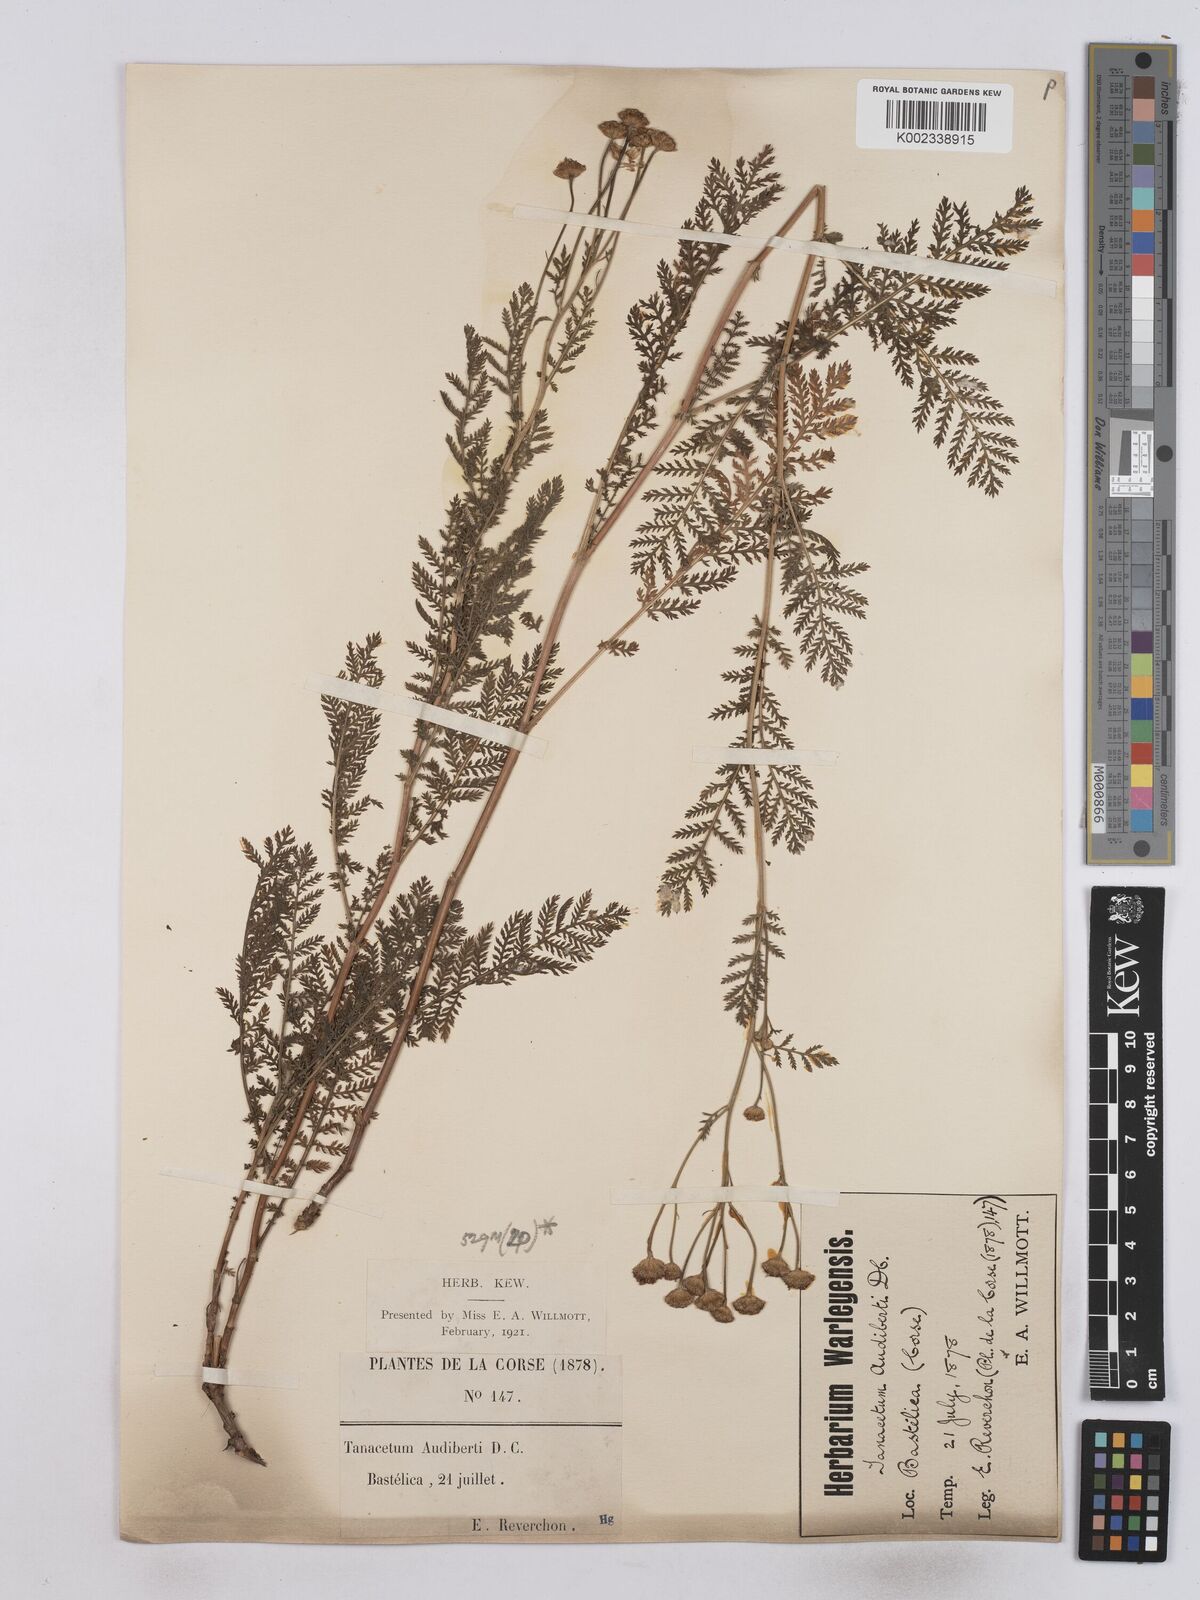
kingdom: Plantae
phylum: Tracheophyta
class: Magnoliopsida
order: Asterales
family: Asteraceae
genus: Tanacetum
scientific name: Tanacetum audibertii
